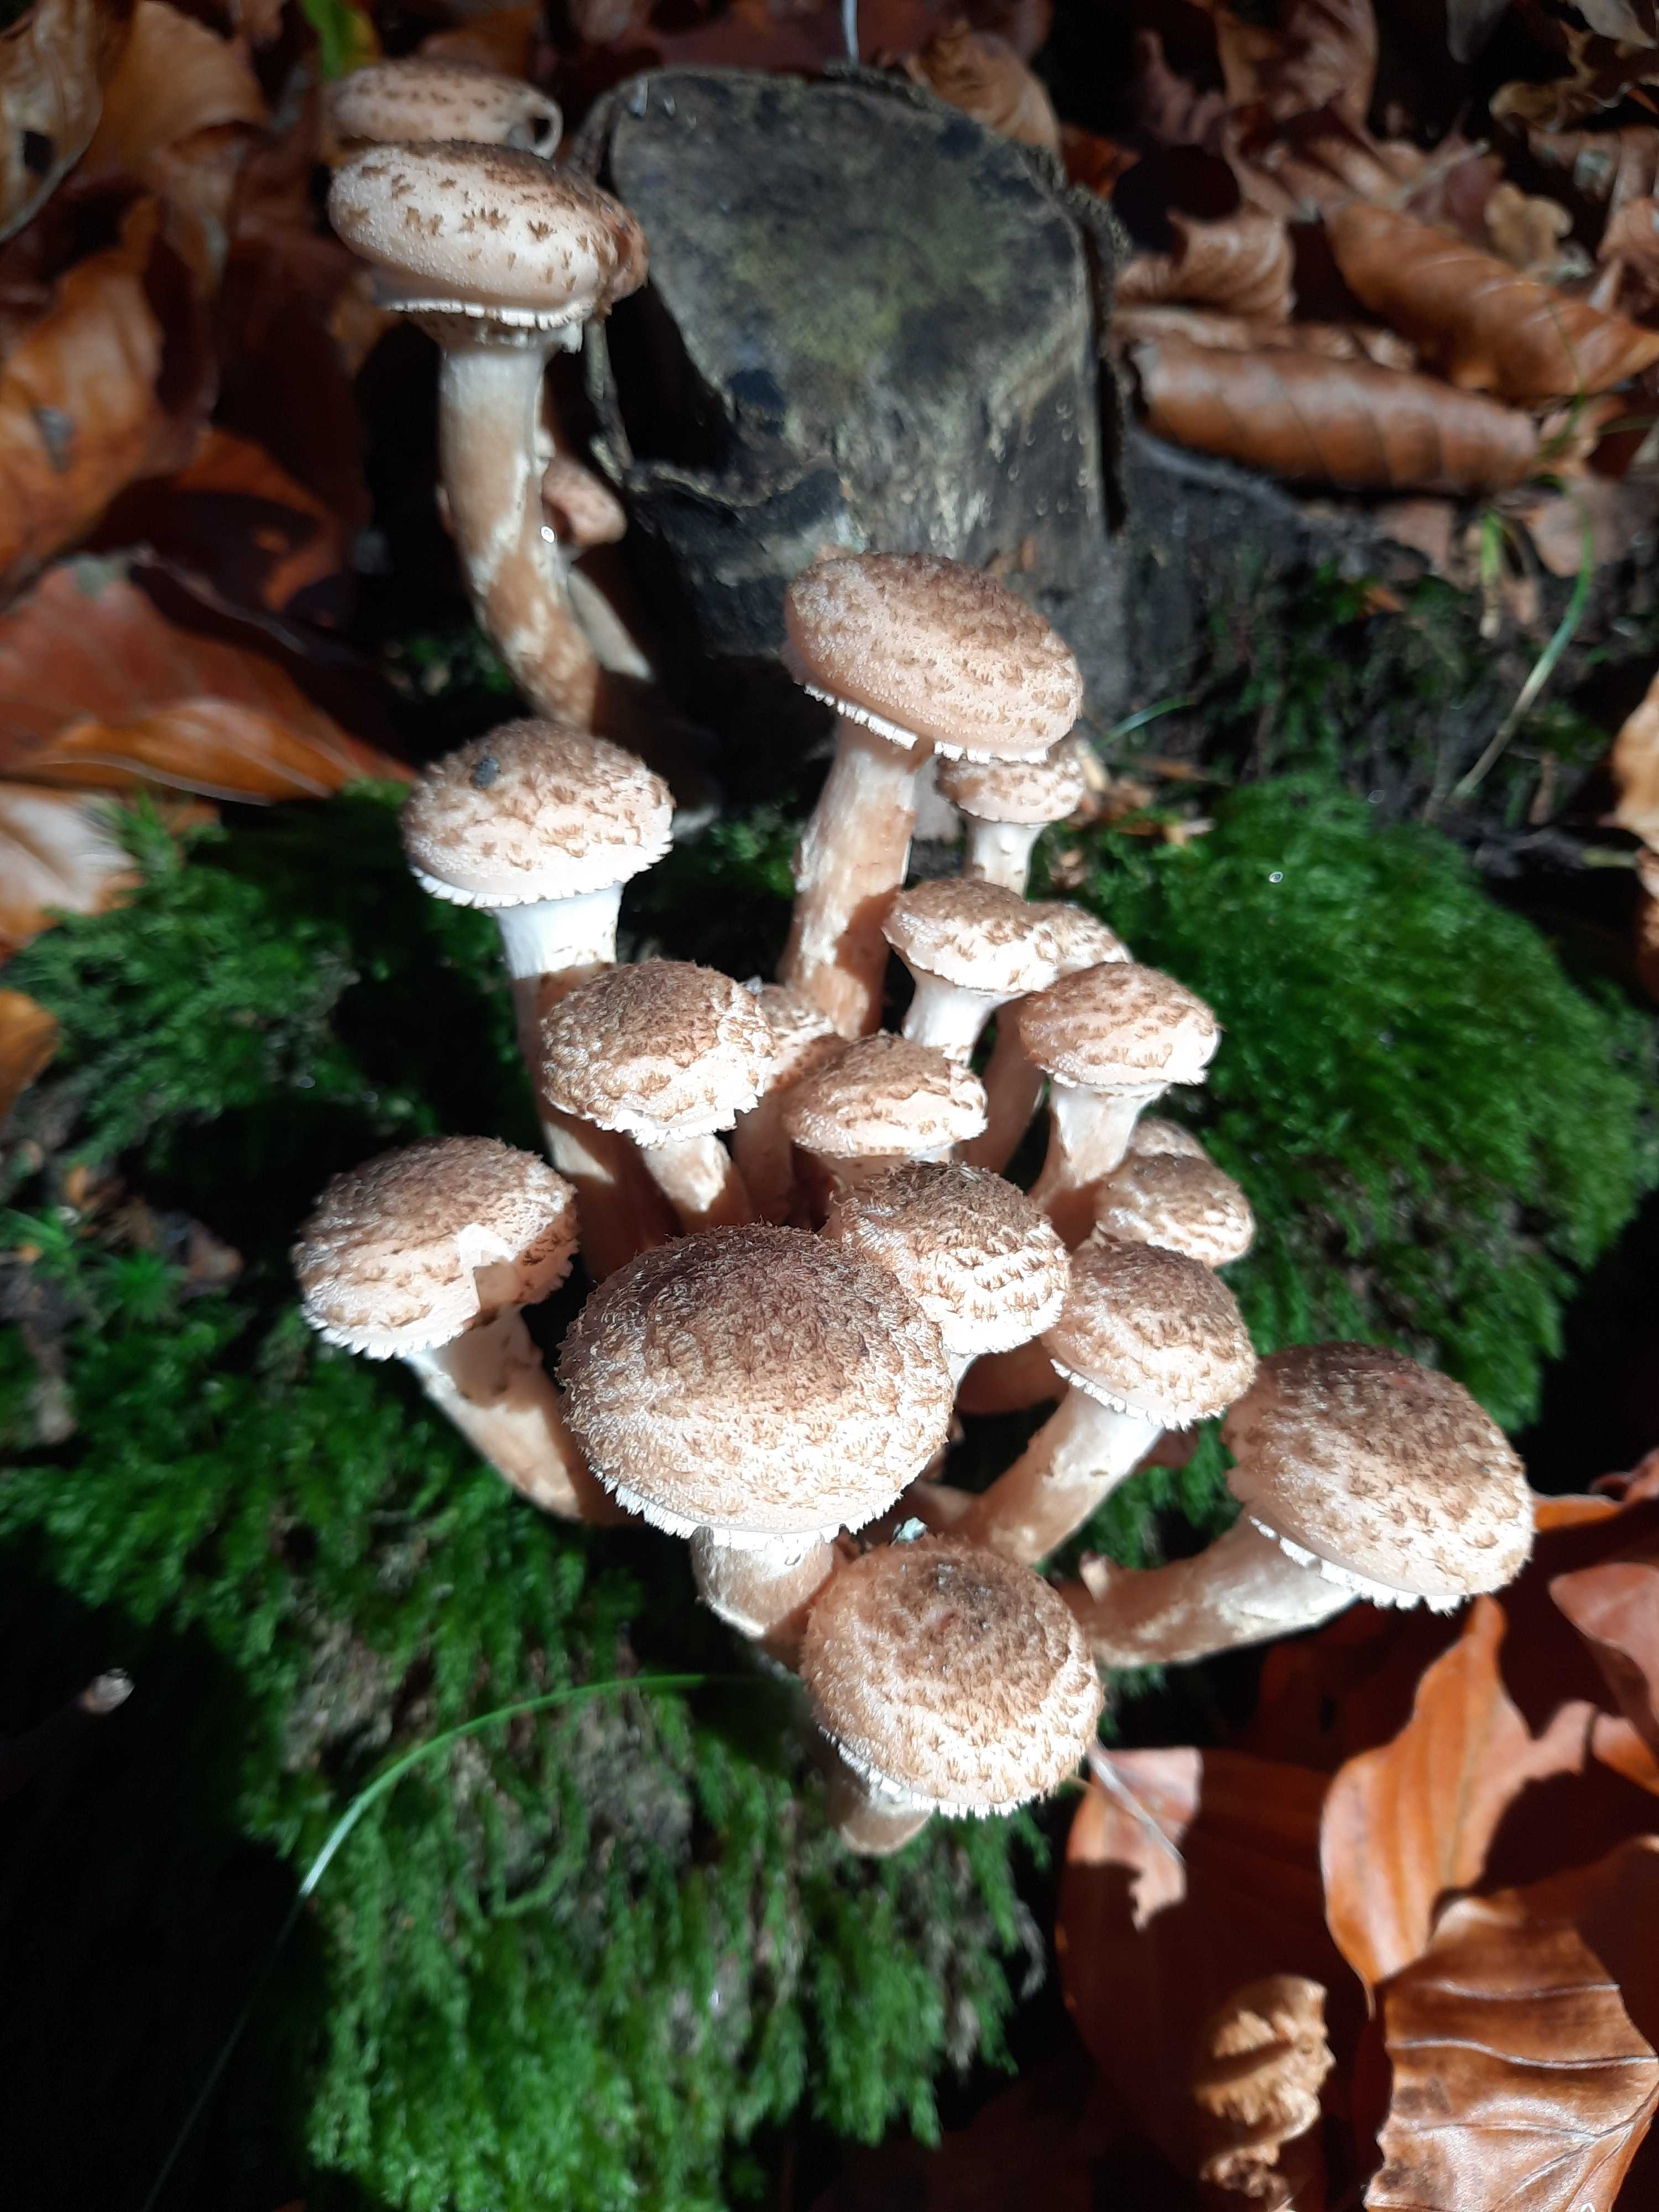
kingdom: Fungi
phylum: Basidiomycota
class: Agaricomycetes
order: Agaricales
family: Physalacriaceae
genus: Armillaria
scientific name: Armillaria
